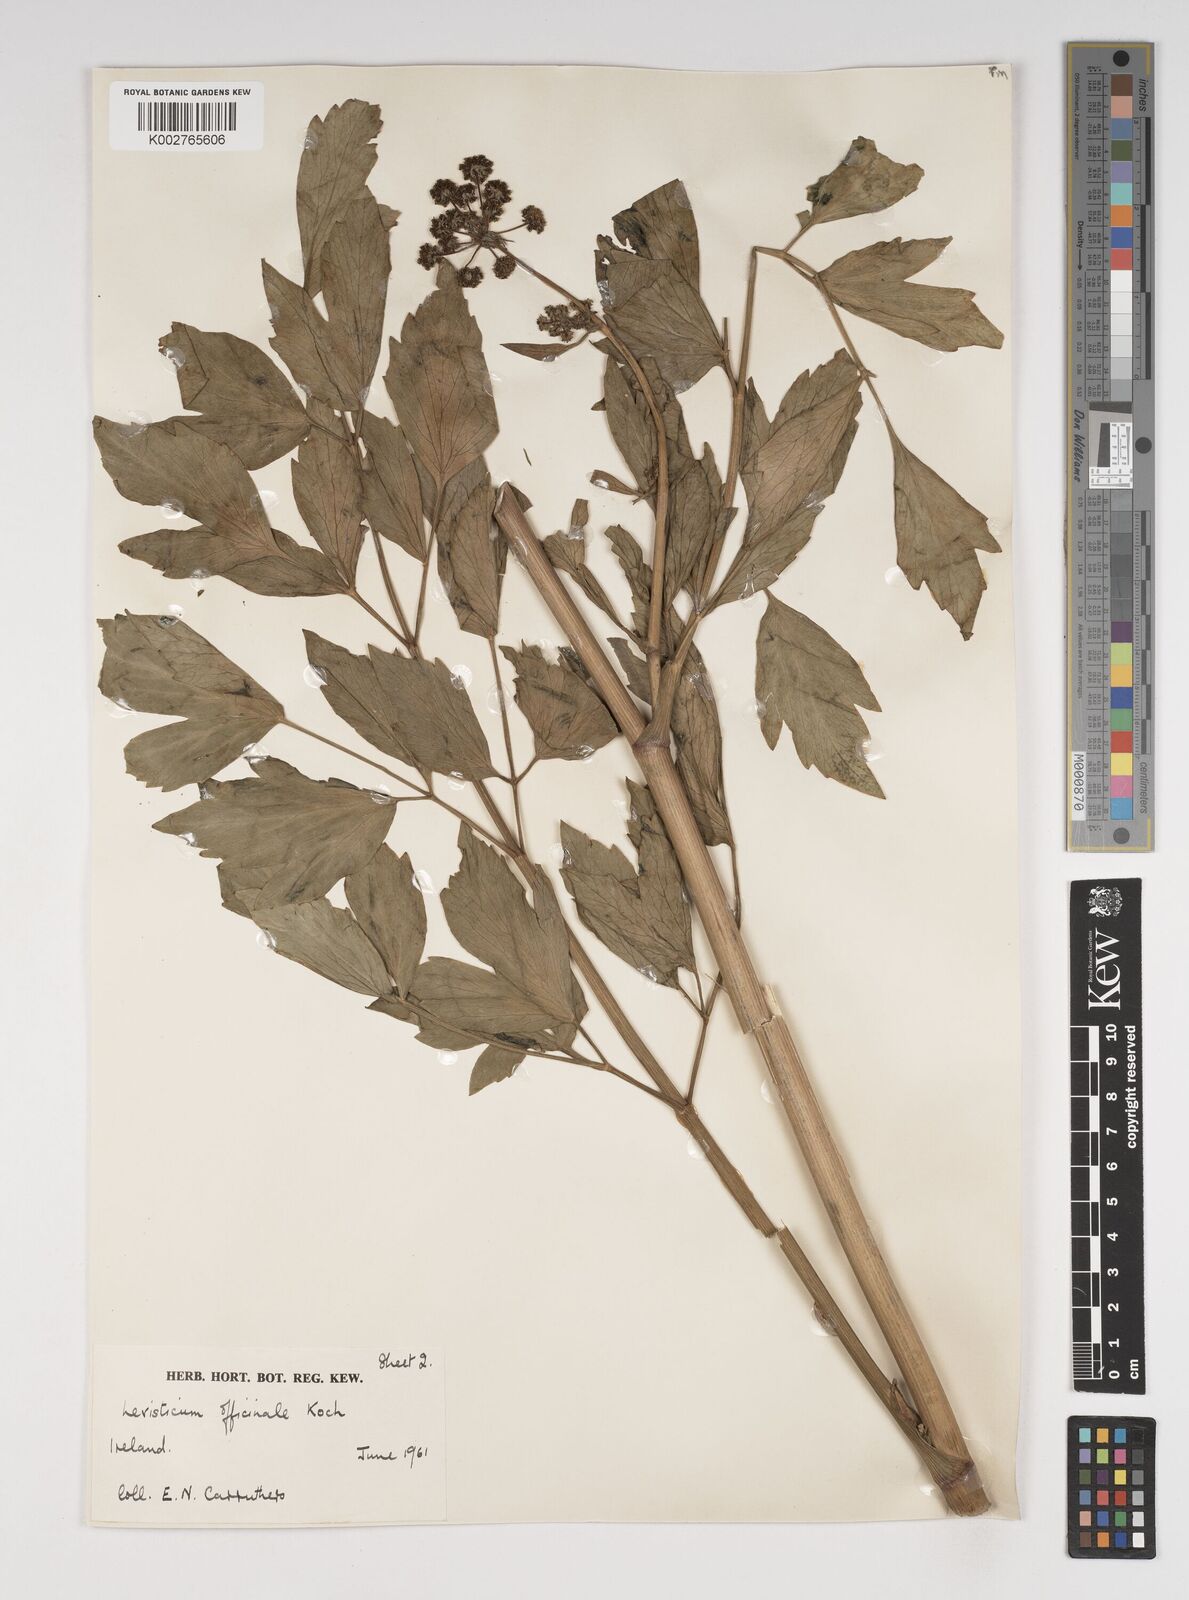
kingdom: Plantae
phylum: Tracheophyta
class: Magnoliopsida
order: Apiales
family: Apiaceae
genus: Levisticum
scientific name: Levisticum officinale
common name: Lovage
